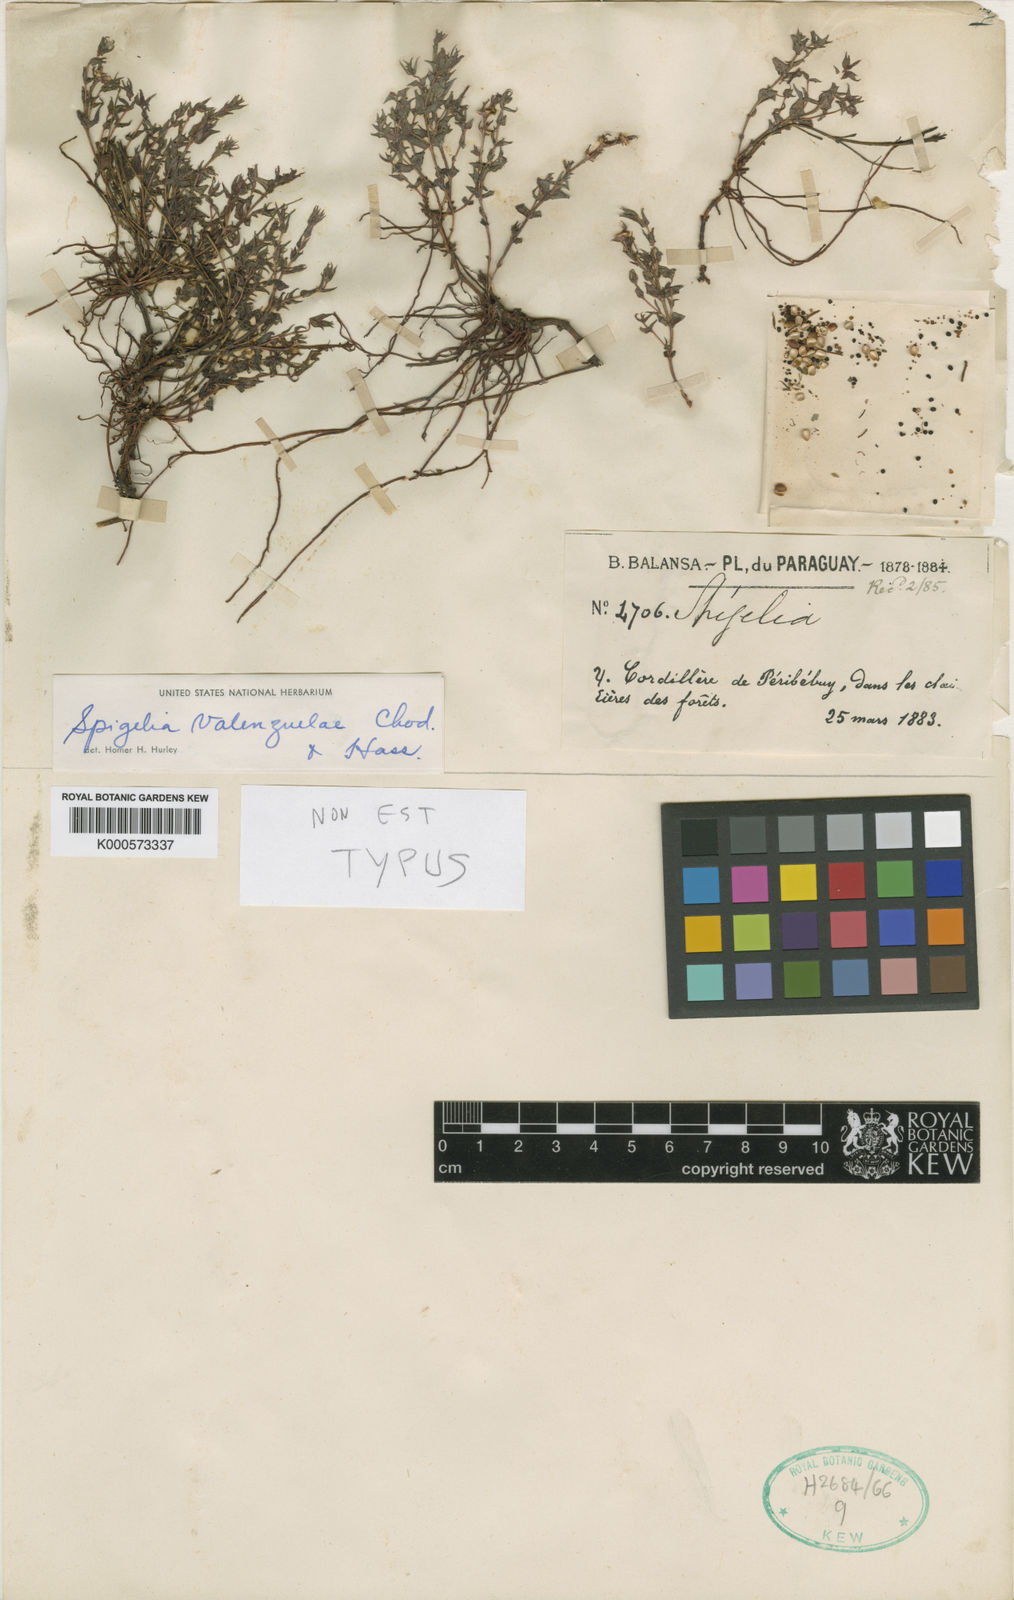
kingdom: Plantae
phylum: Tracheophyta
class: Magnoliopsida
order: Gentianales
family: Loganiaceae
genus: Spigelia
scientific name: Spigelia valenzuelae
